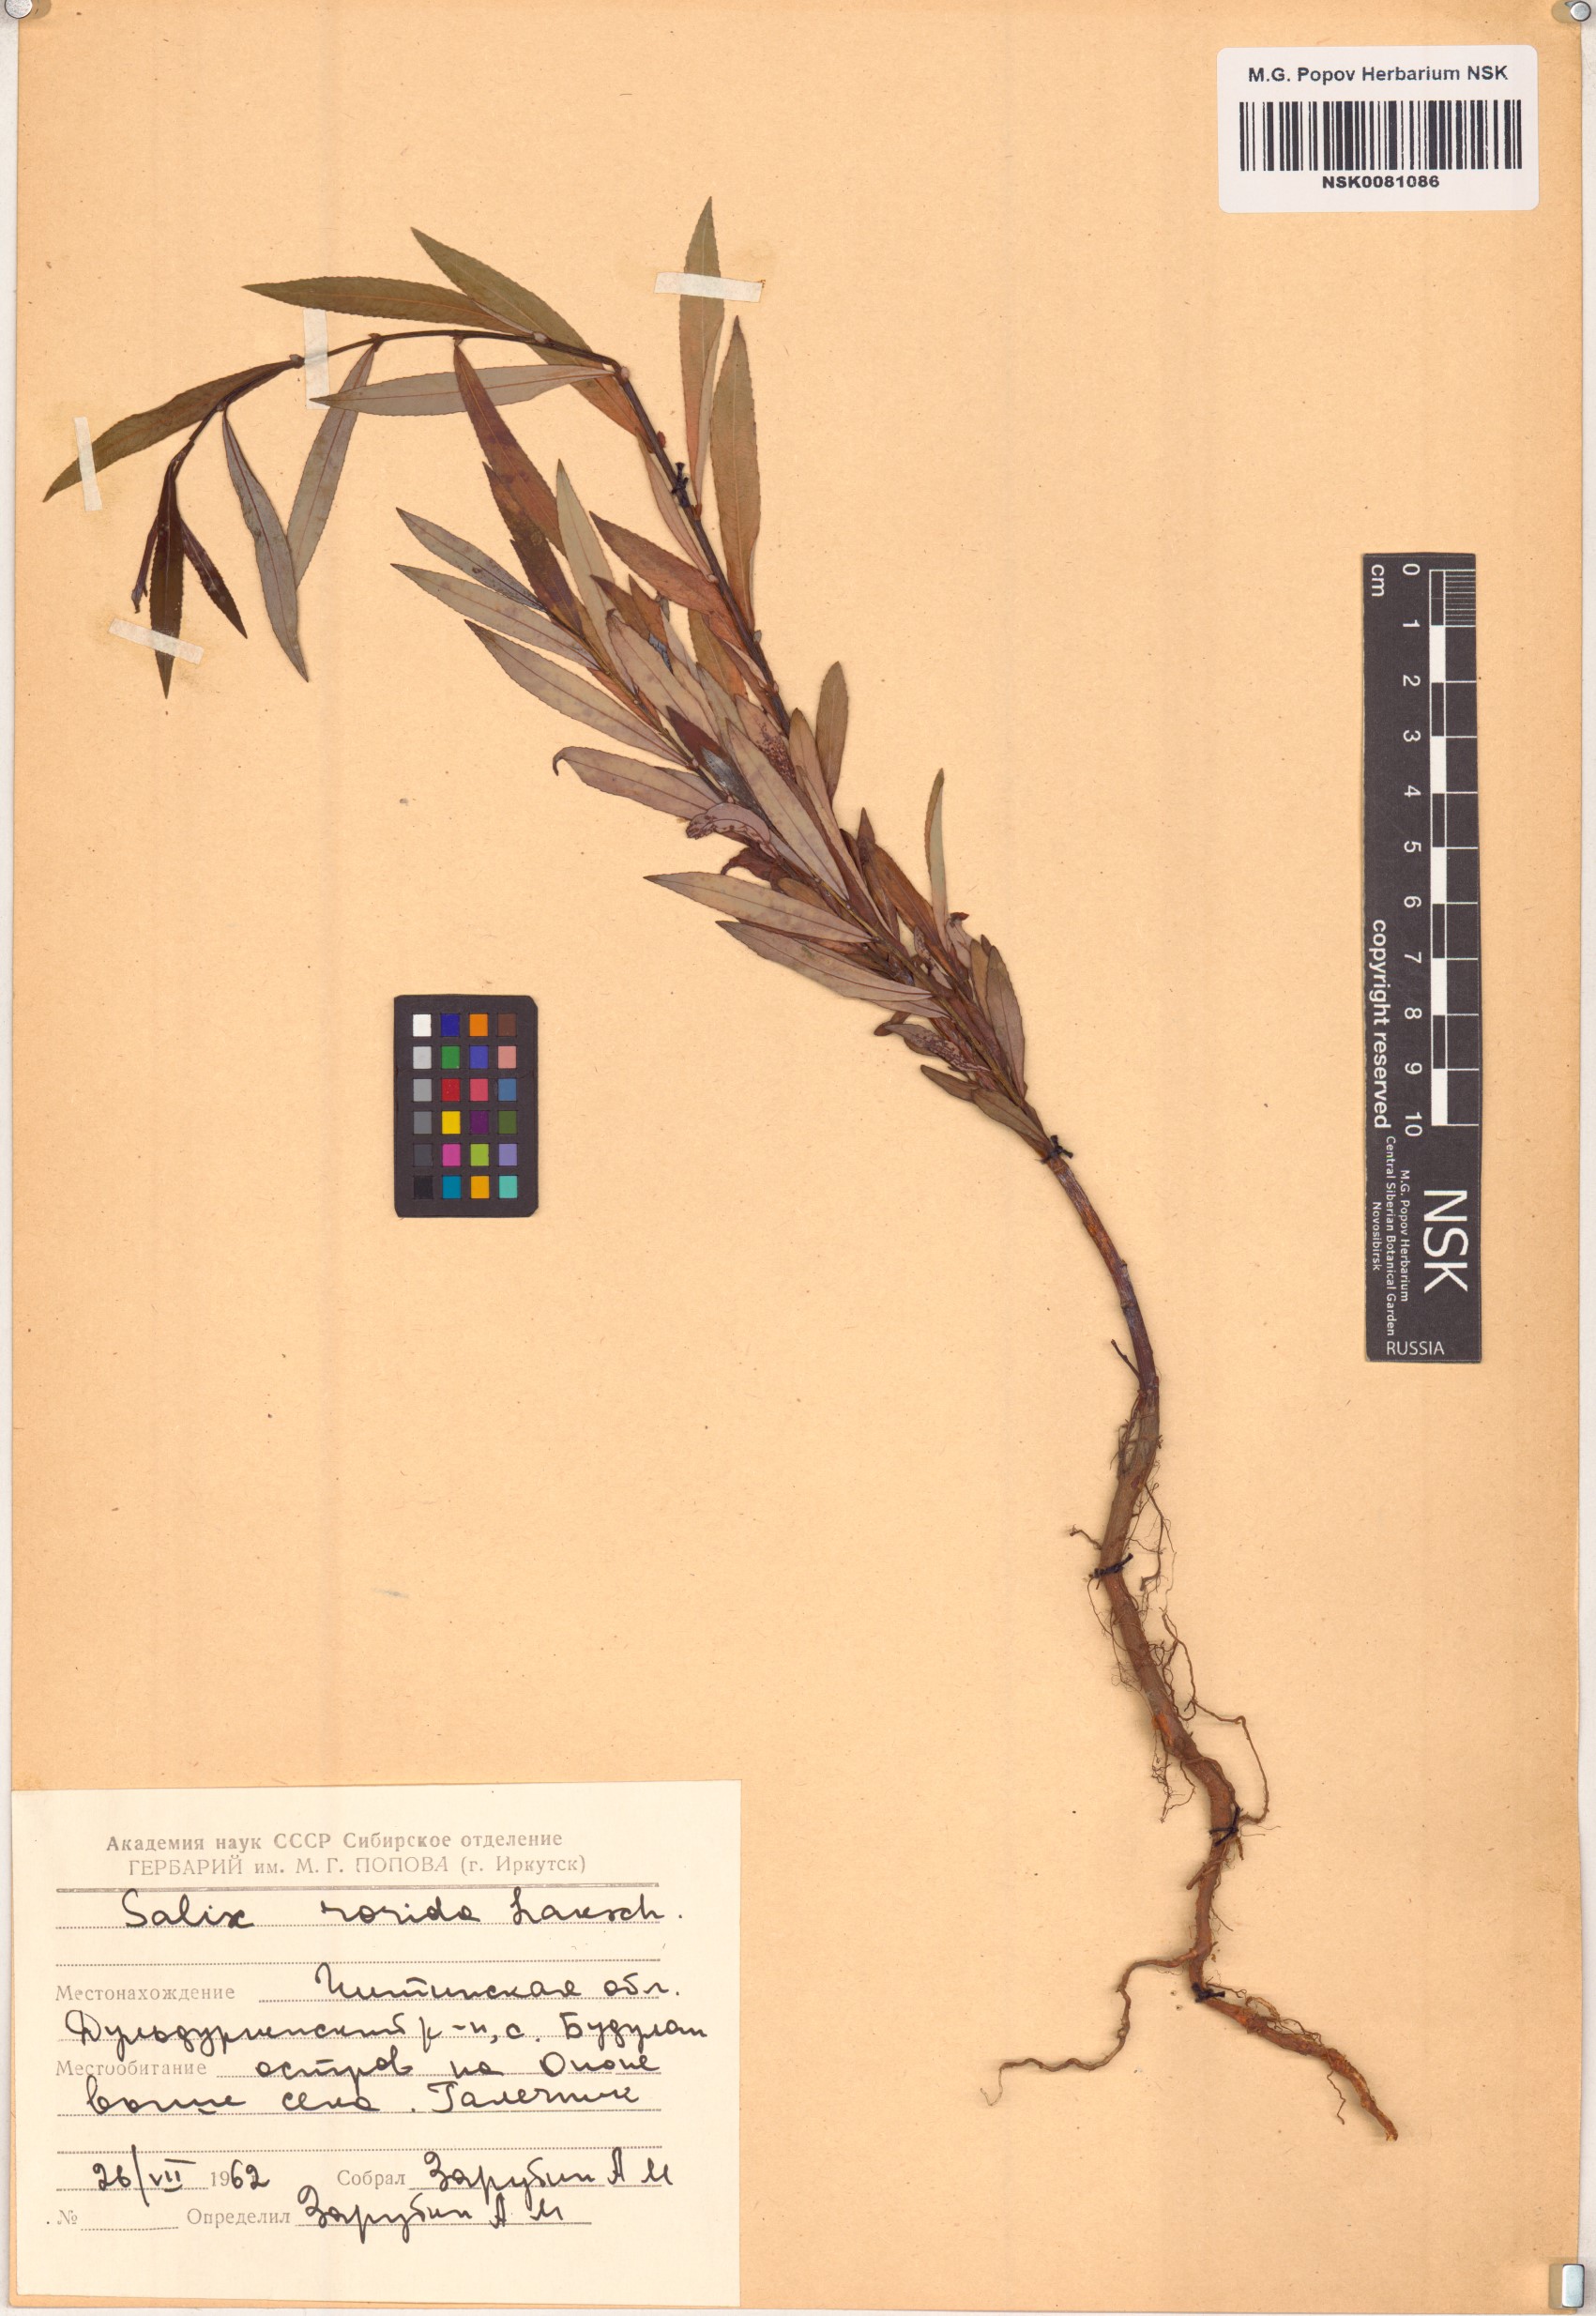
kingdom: Plantae
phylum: Tracheophyta
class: Magnoliopsida
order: Malpighiales
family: Salicaceae
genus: Salix
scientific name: Salix rorida
